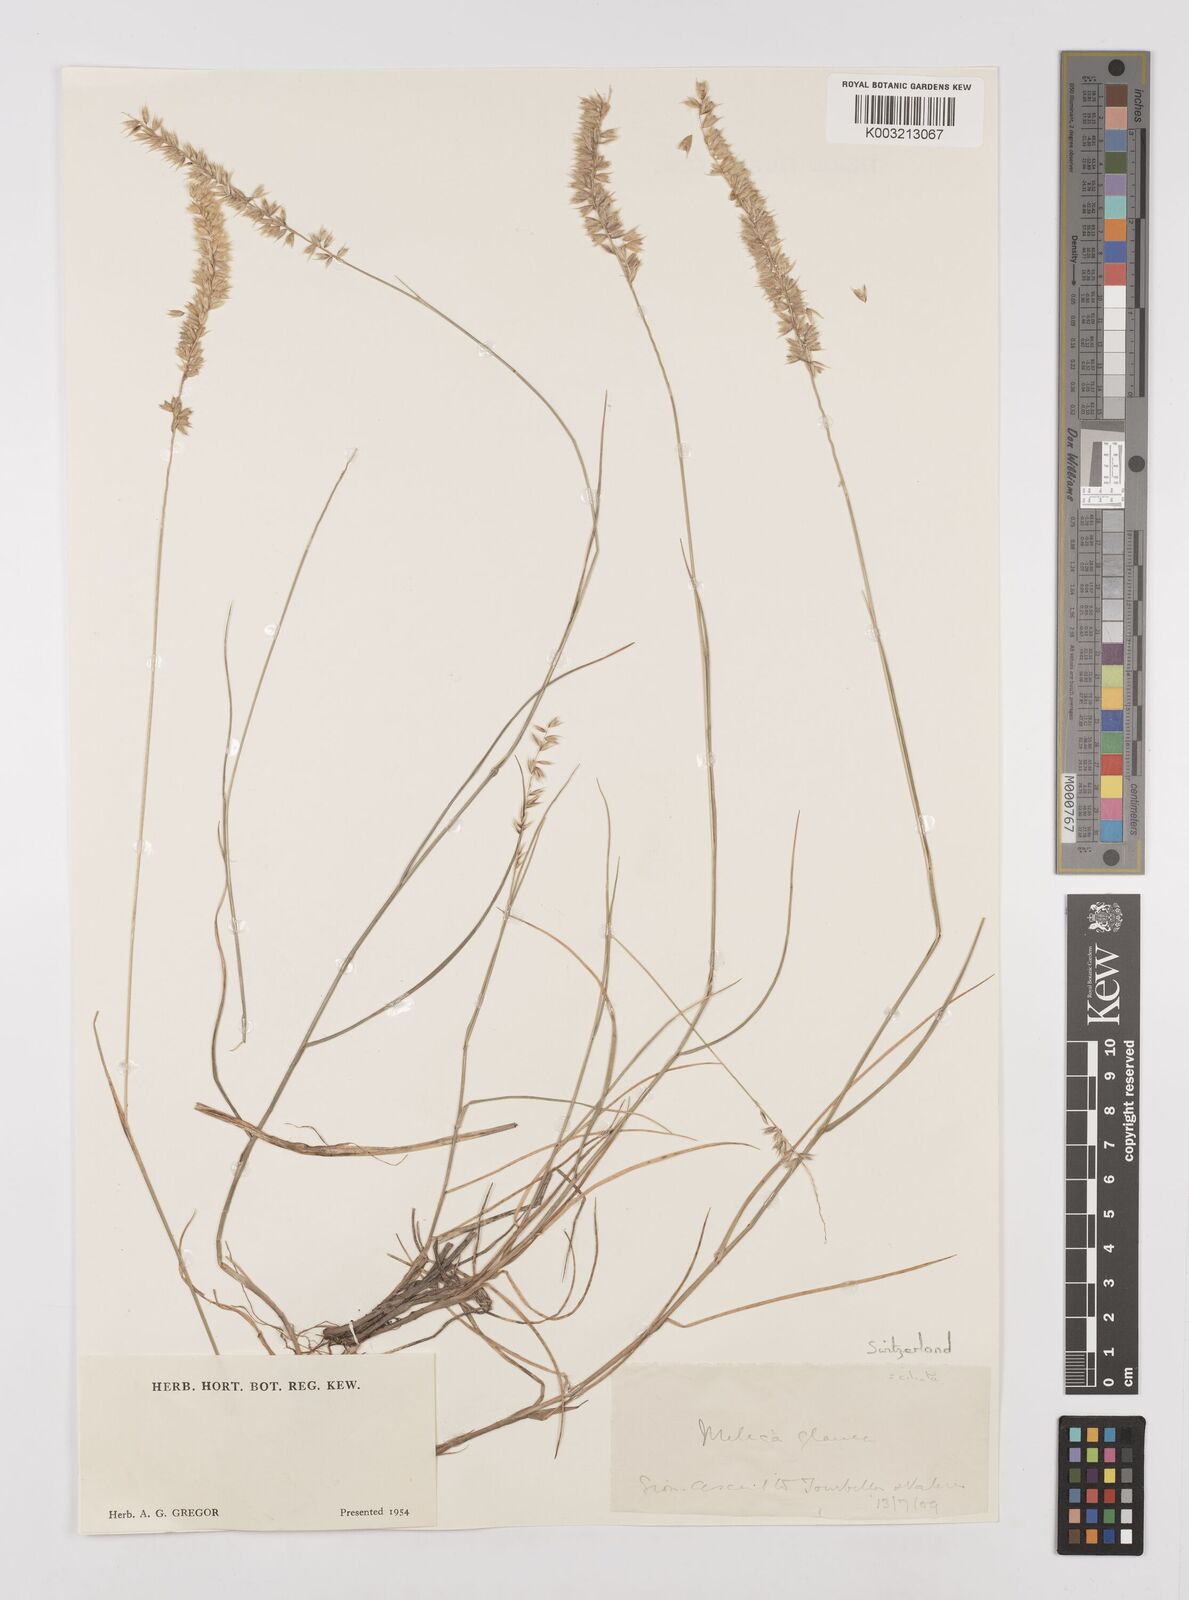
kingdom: Plantae
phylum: Tracheophyta
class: Liliopsida
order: Poales
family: Poaceae
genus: Melica
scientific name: Melica ciliata
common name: Hairy melicgrass
